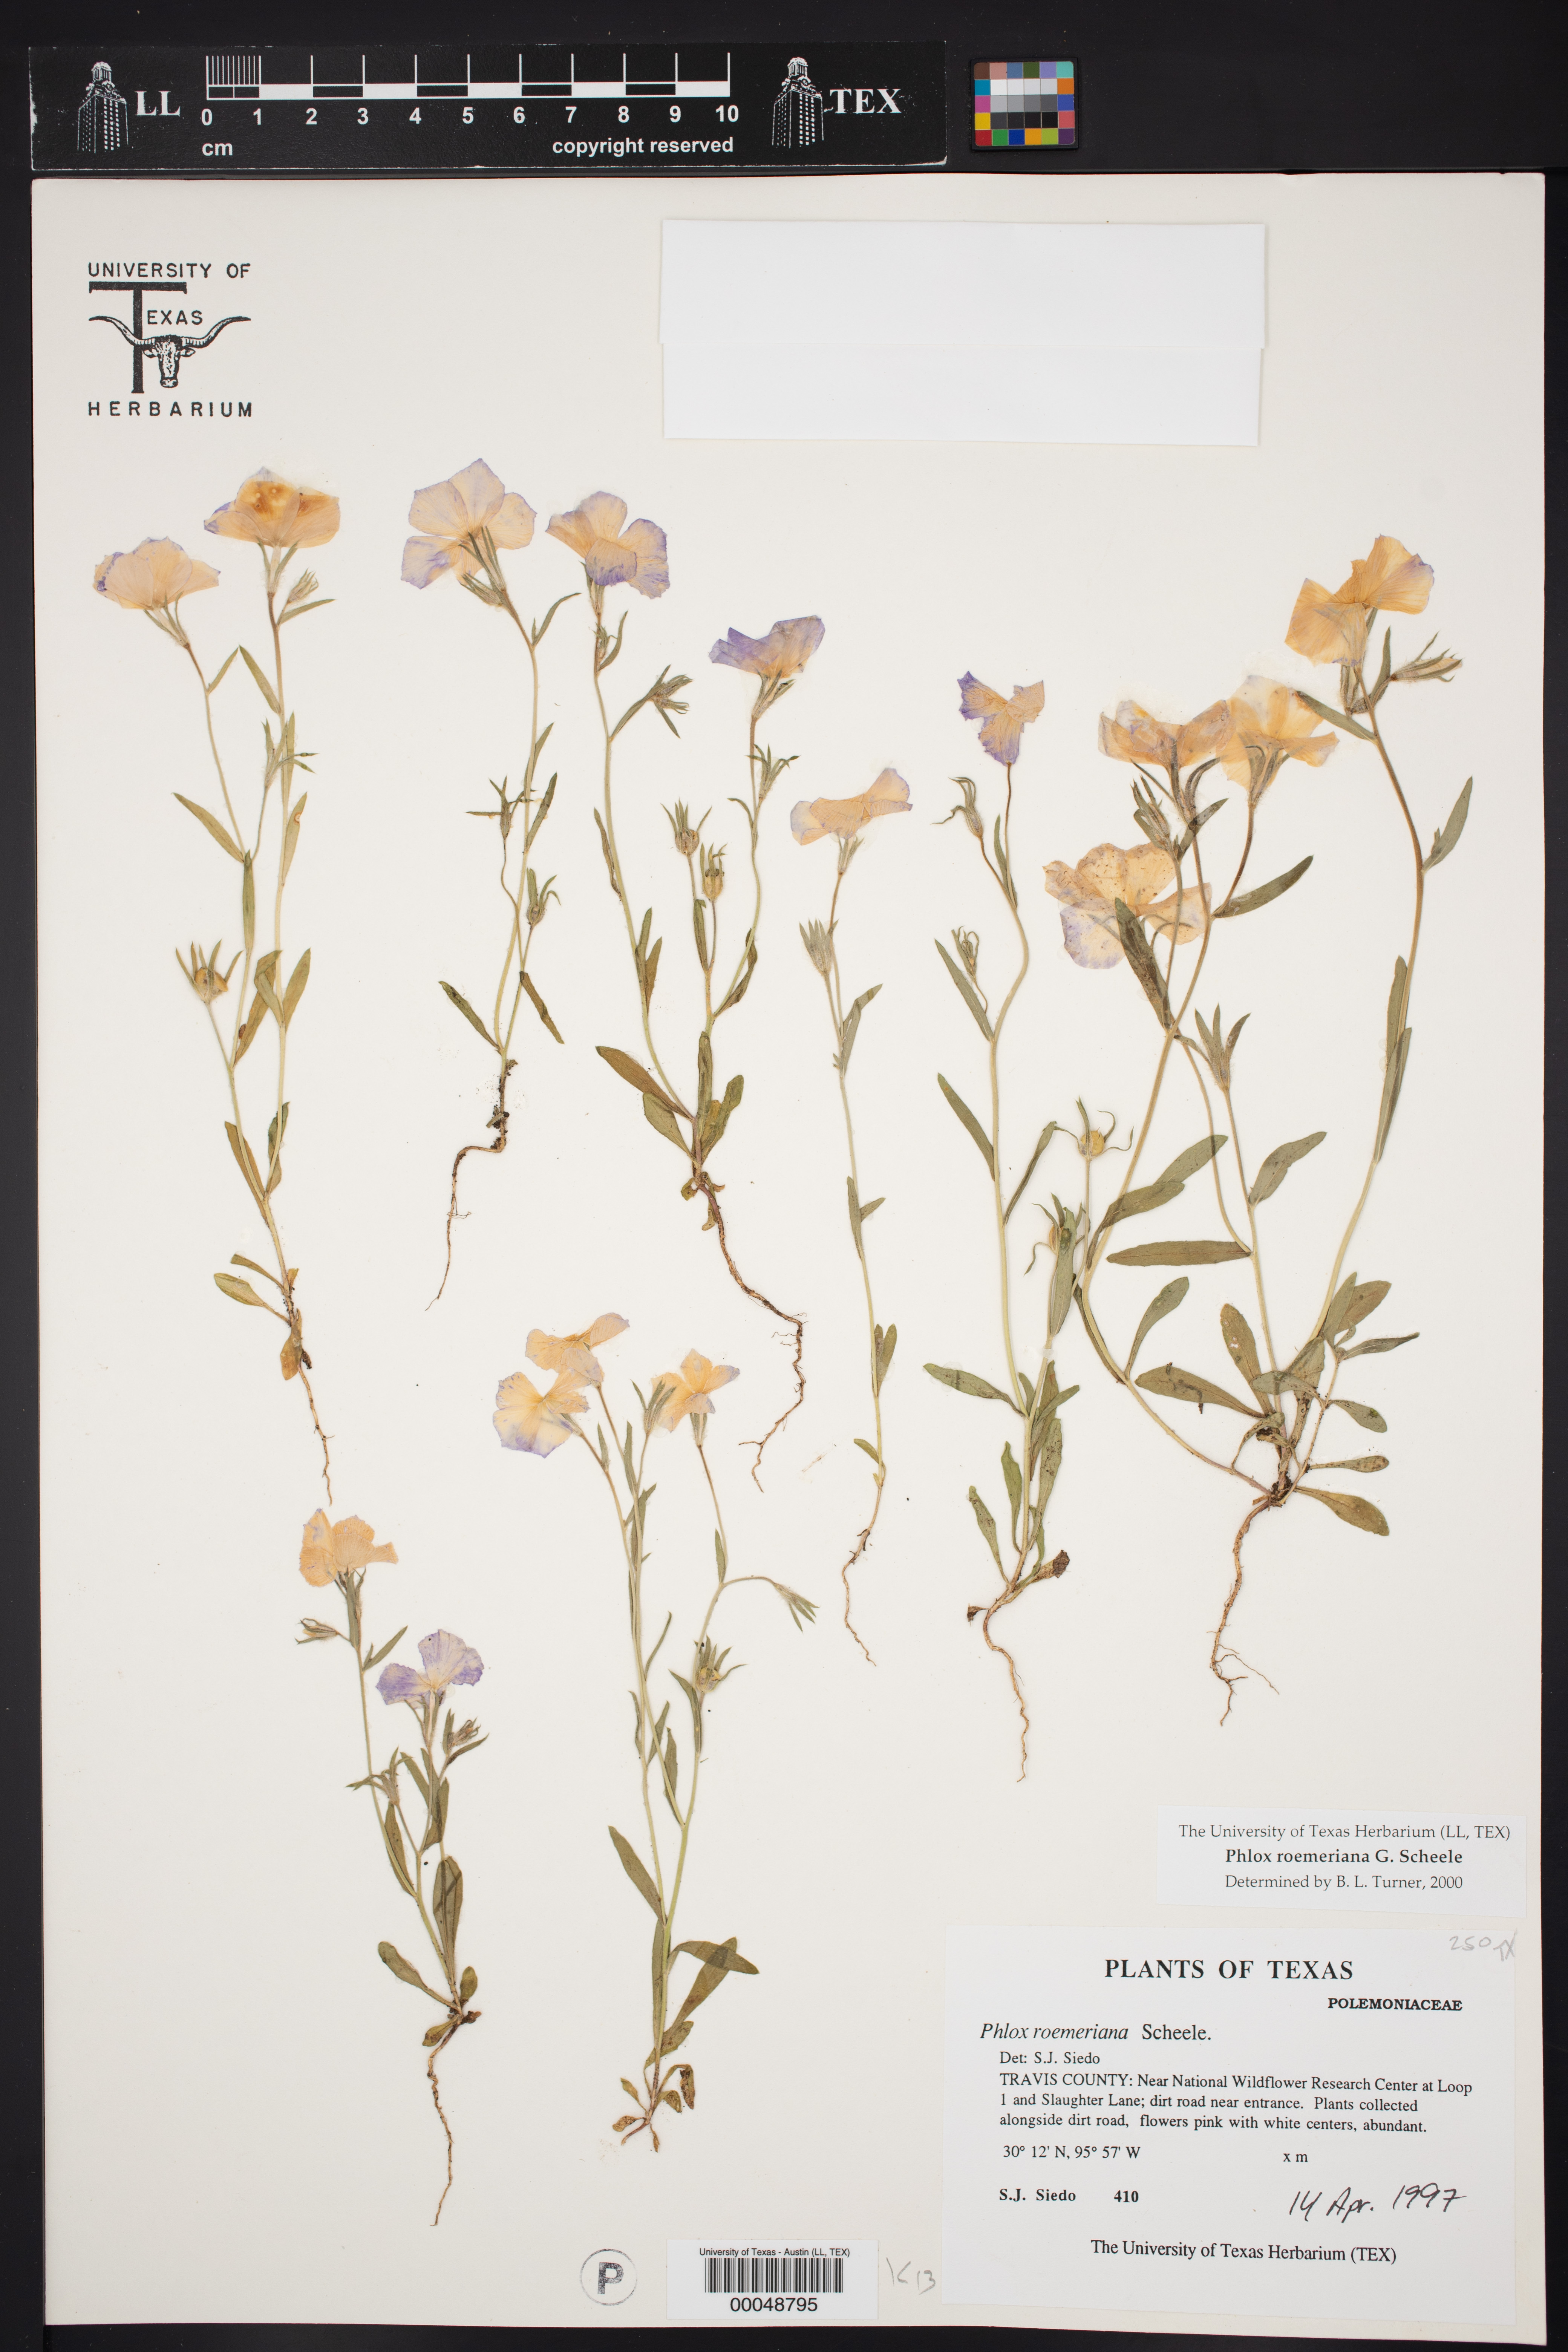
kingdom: Plantae
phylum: Tracheophyta
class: Magnoliopsida
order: Ericales
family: Polemoniaceae
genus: Phlox
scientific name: Phlox roemeriana
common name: Roemer's phlox
